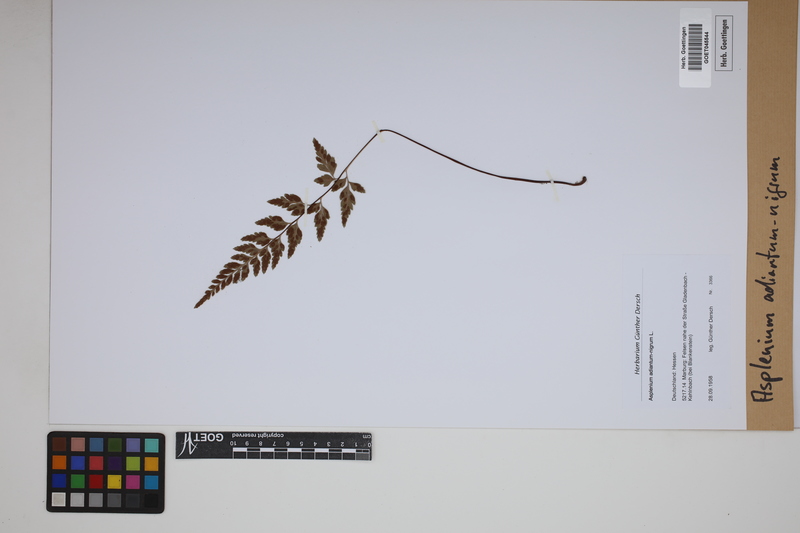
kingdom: Plantae
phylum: Tracheophyta
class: Polypodiopsida
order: Polypodiales
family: Aspleniaceae
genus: Asplenium
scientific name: Asplenium adiantum-nigrum
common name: Black spleenwort
